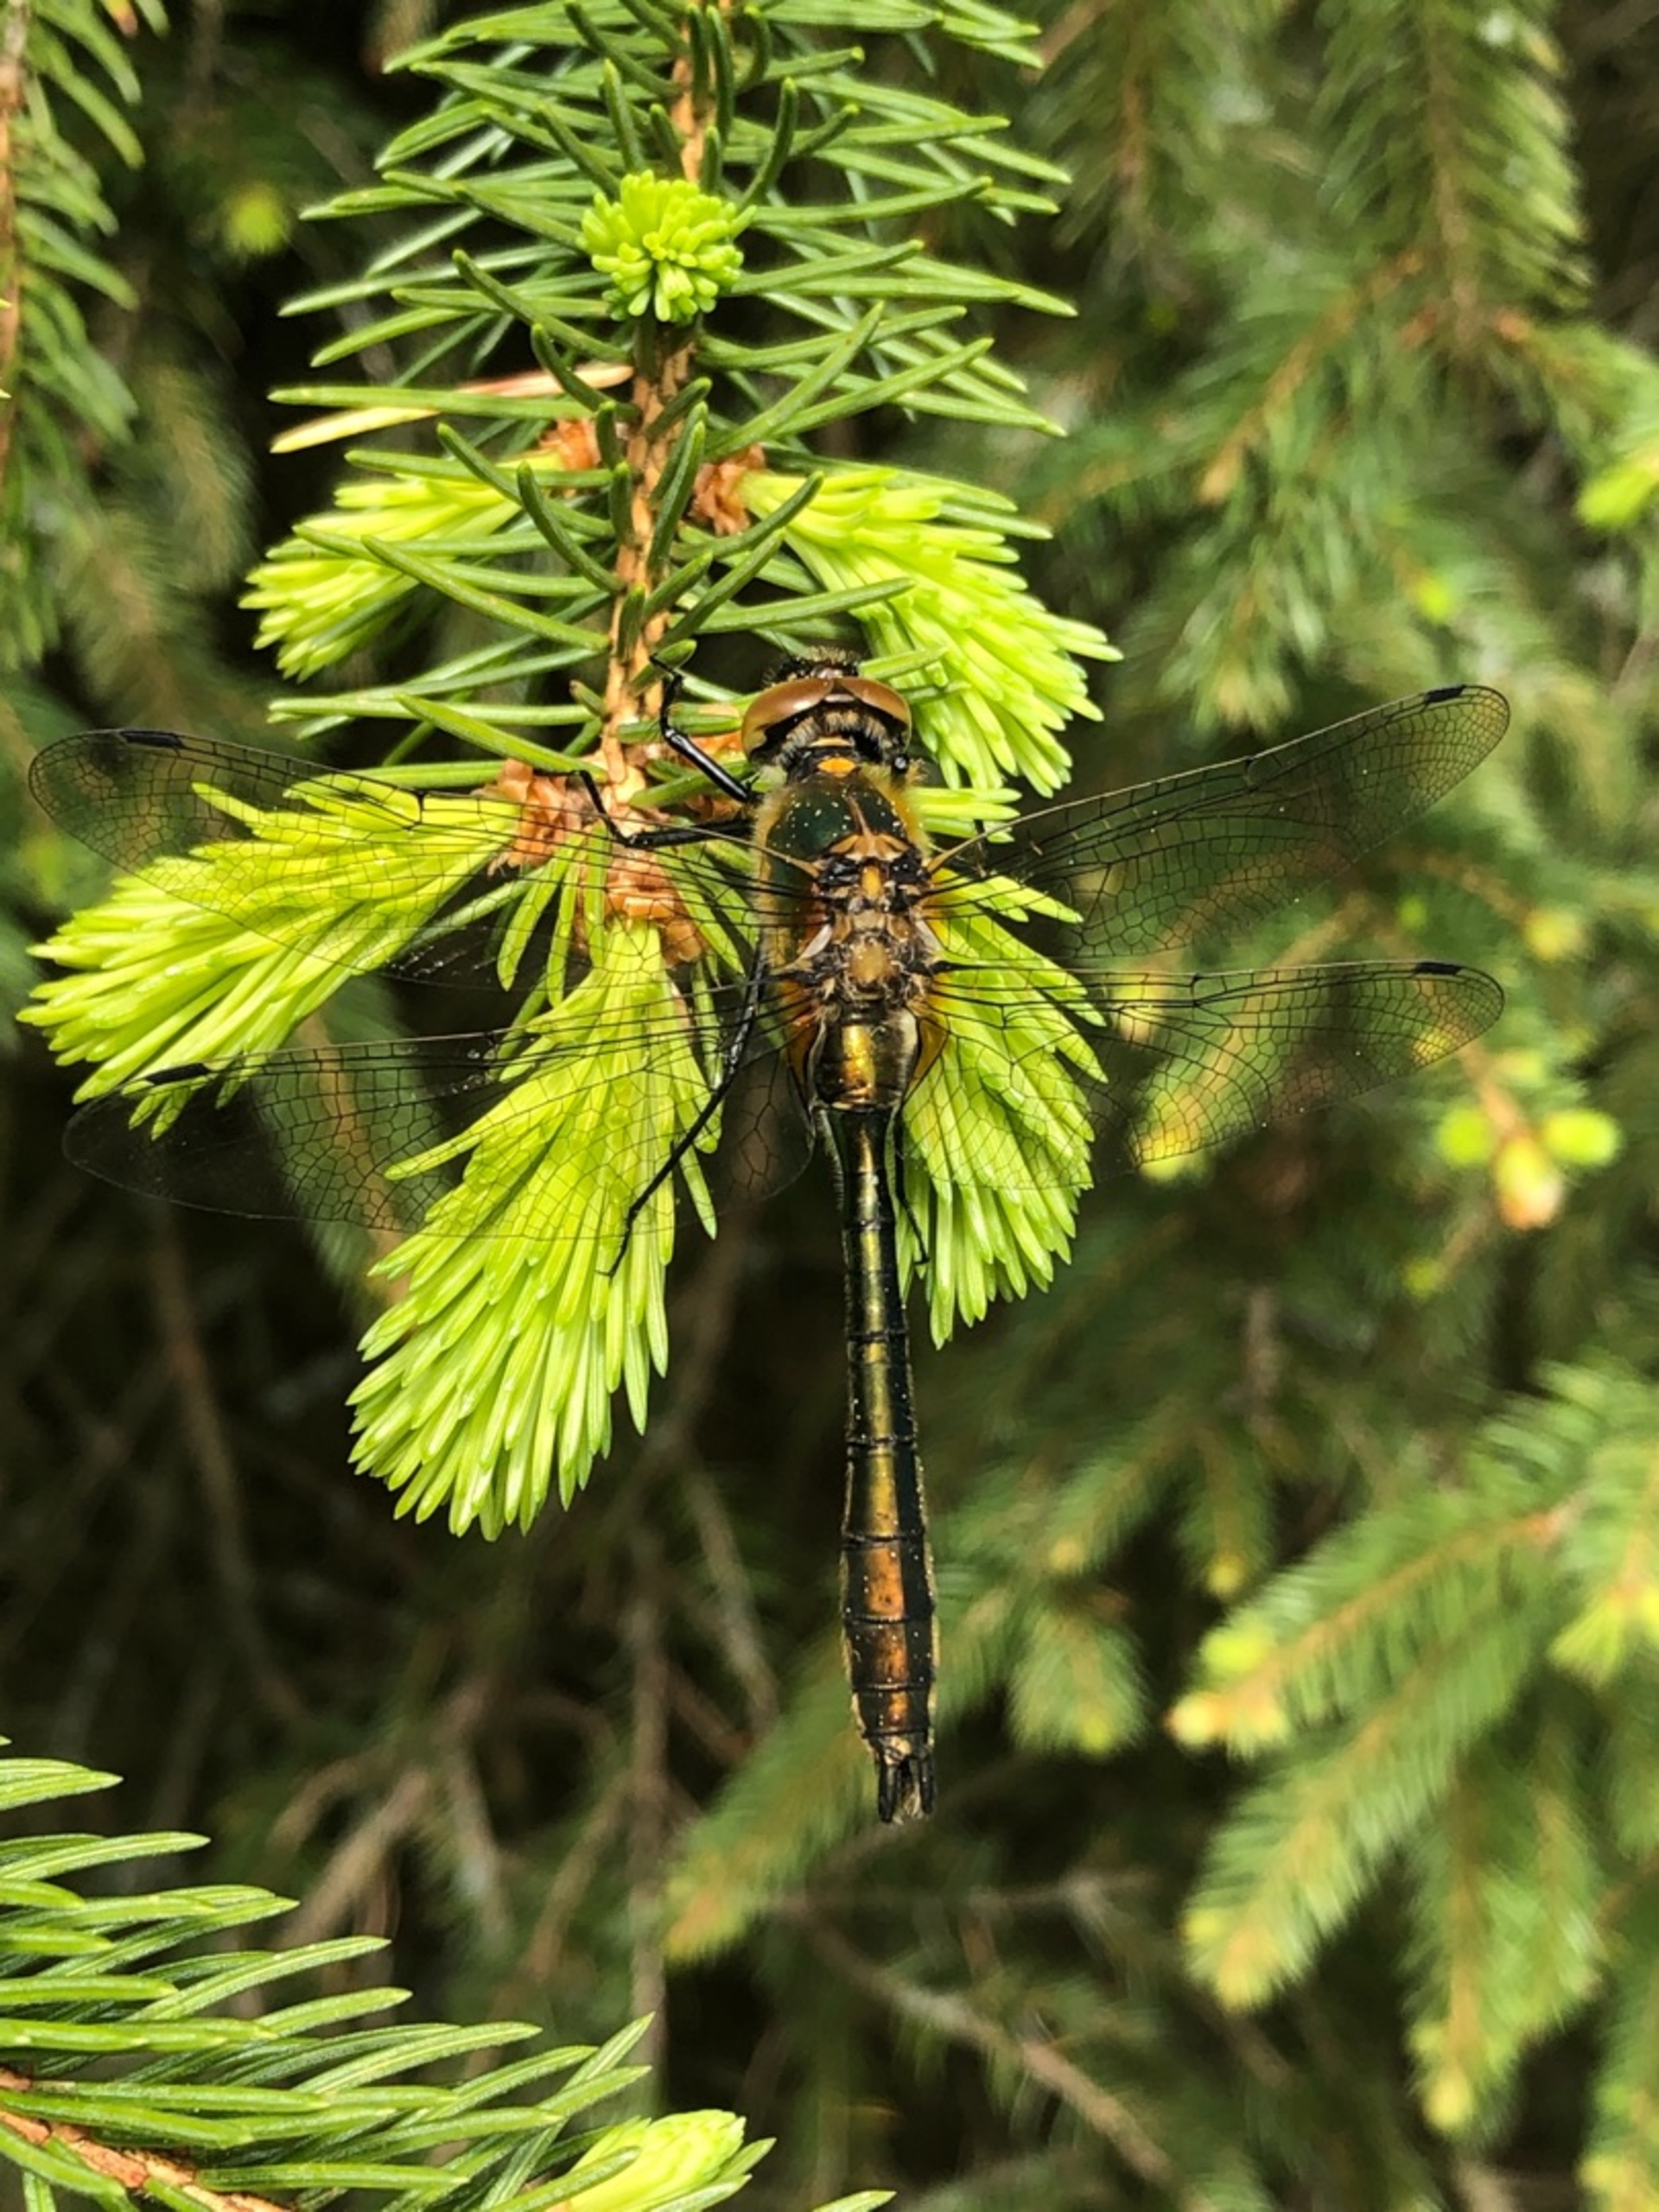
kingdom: Animalia
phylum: Arthropoda
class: Insecta
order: Odonata
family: Corduliidae
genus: Cordulia
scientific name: Cordulia aenea
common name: Grøn smaragdlibel
